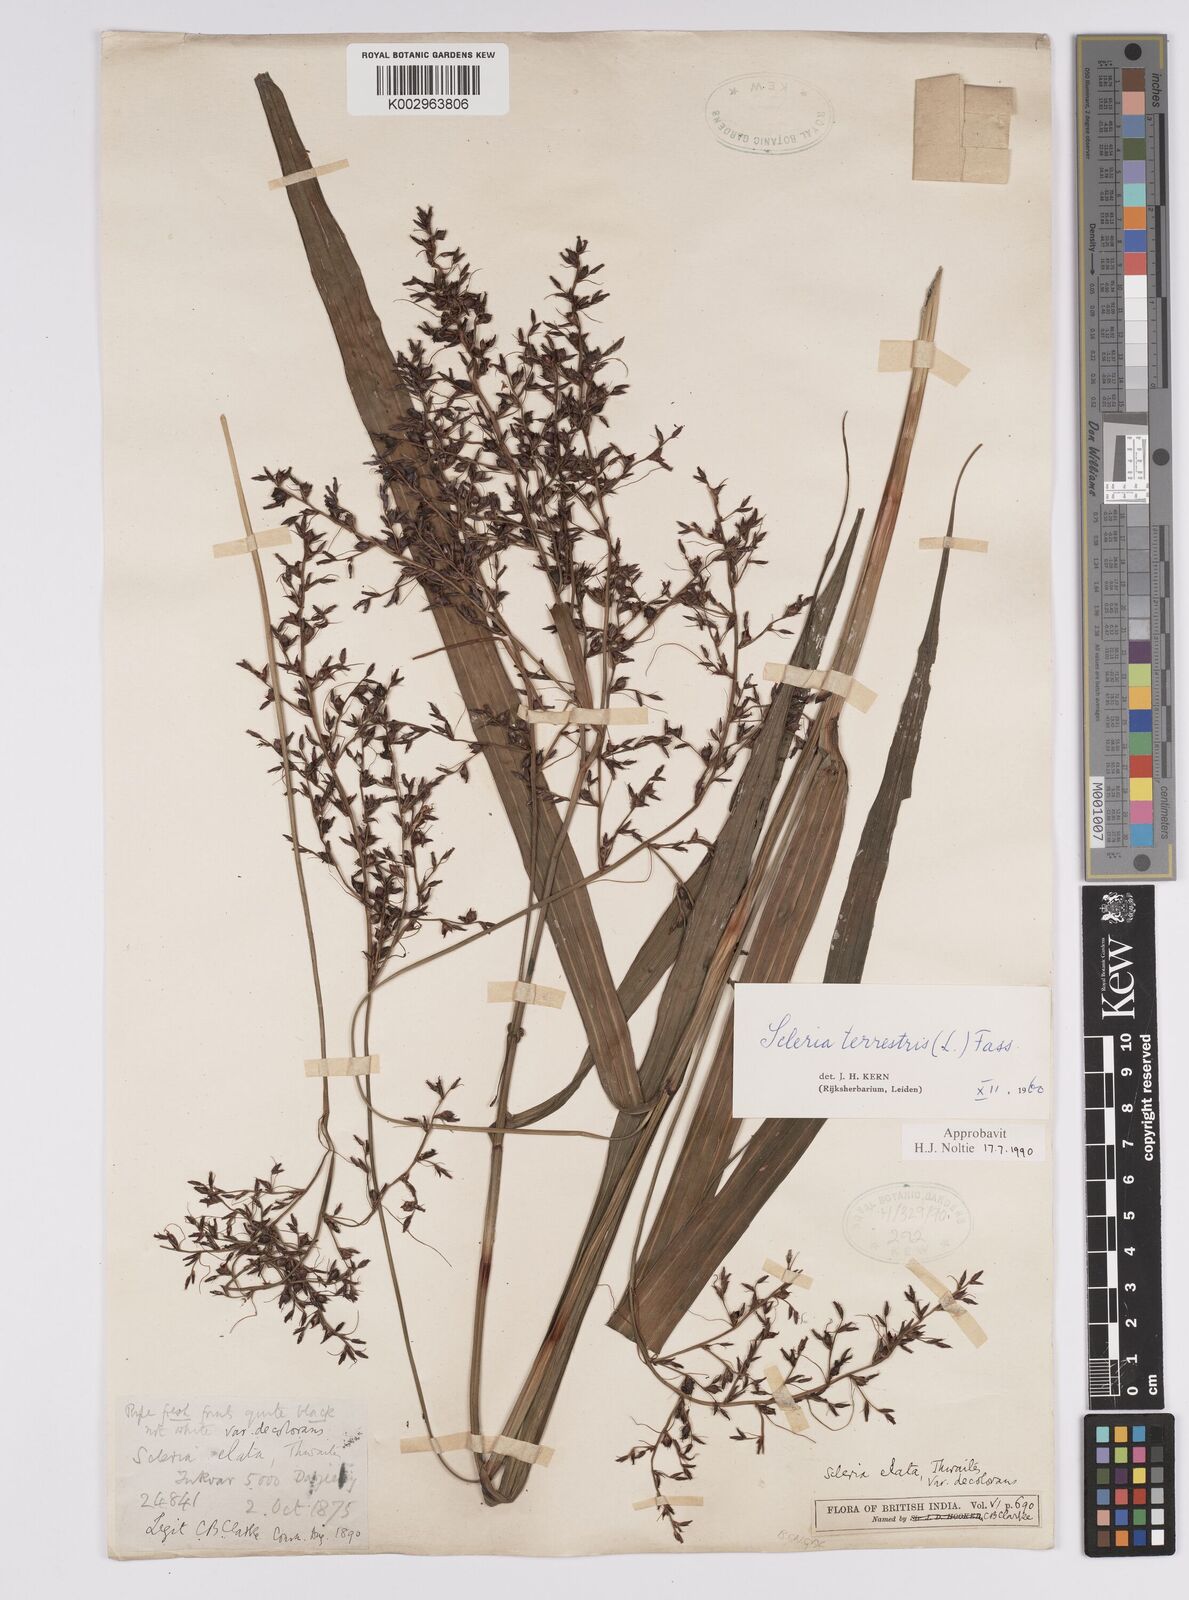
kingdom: Plantae
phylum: Tracheophyta
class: Liliopsida
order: Poales
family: Cyperaceae
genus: Scleria
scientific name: Scleria terrestris
